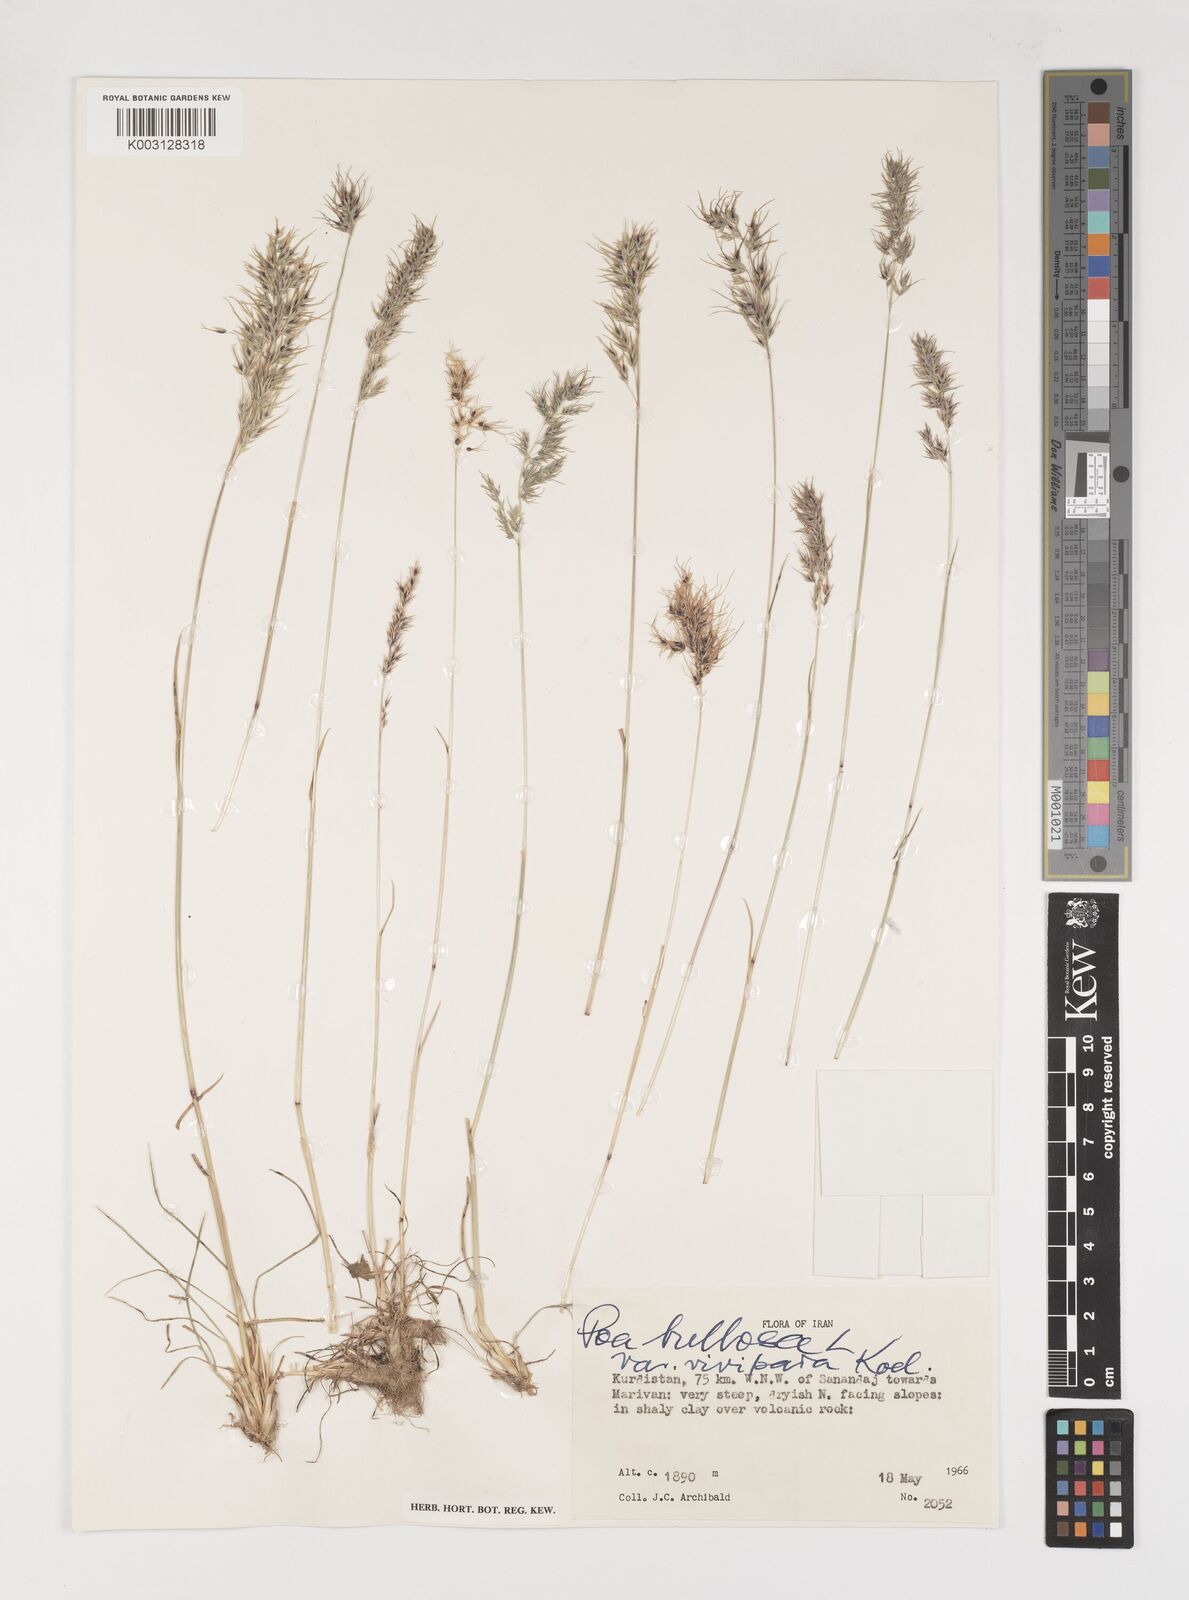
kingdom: Plantae
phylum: Tracheophyta
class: Liliopsida
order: Poales
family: Poaceae
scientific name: Poaceae
